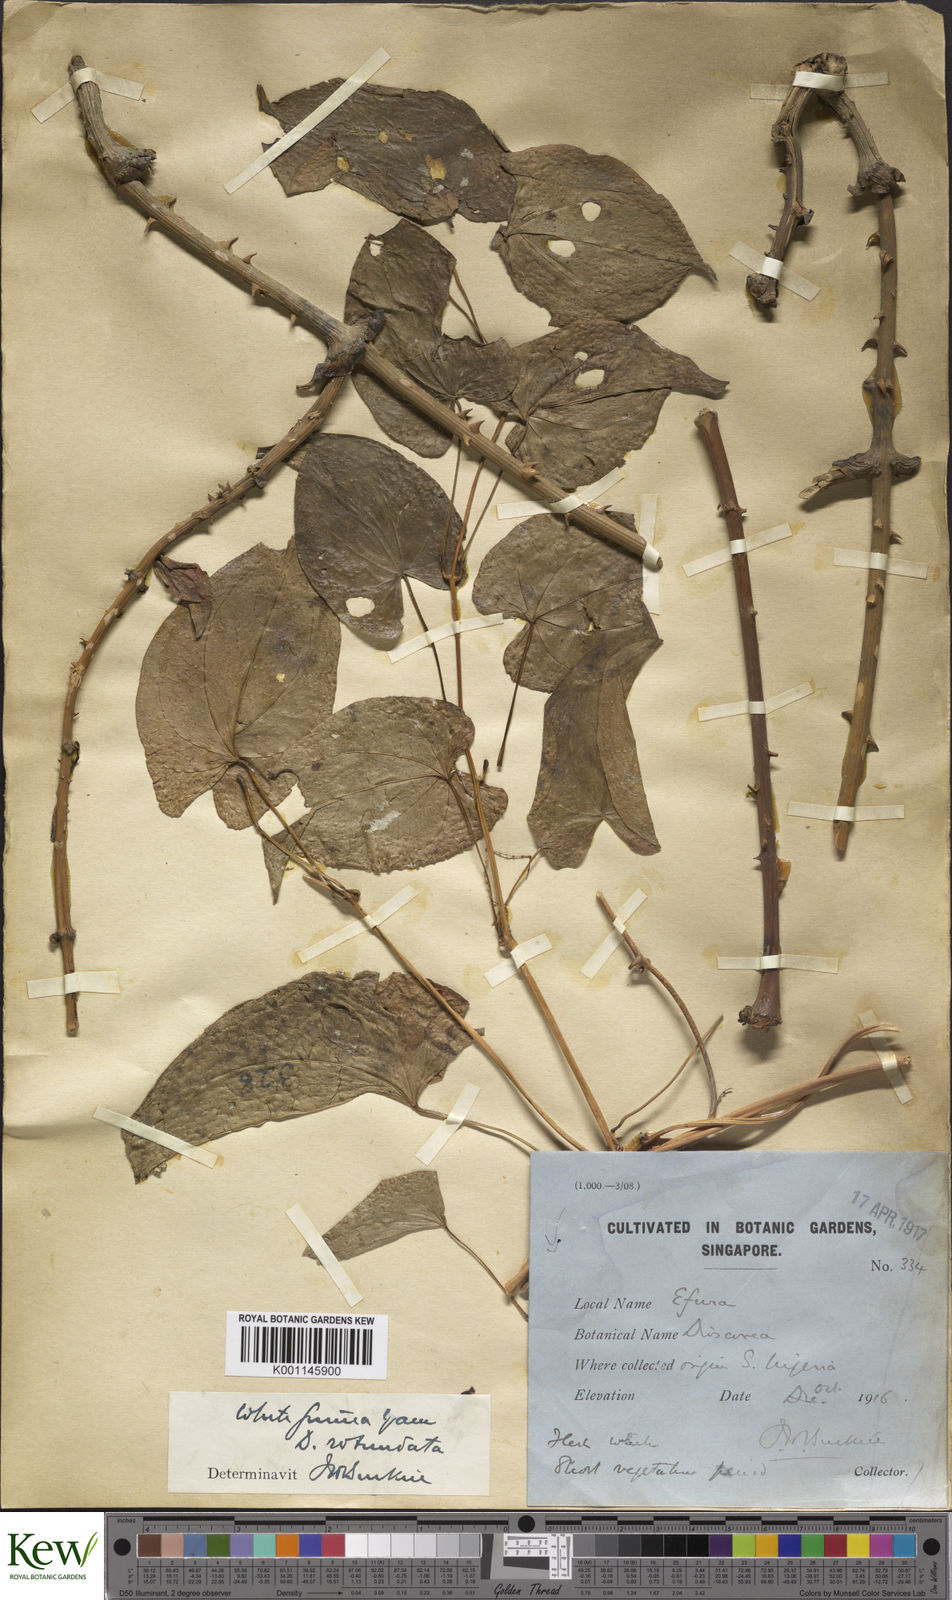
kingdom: Plantae
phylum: Tracheophyta
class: Liliopsida
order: Dioscoreales
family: Dioscoreaceae
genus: Dioscorea
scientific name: Dioscorea cayenensis
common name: Attoto yam
